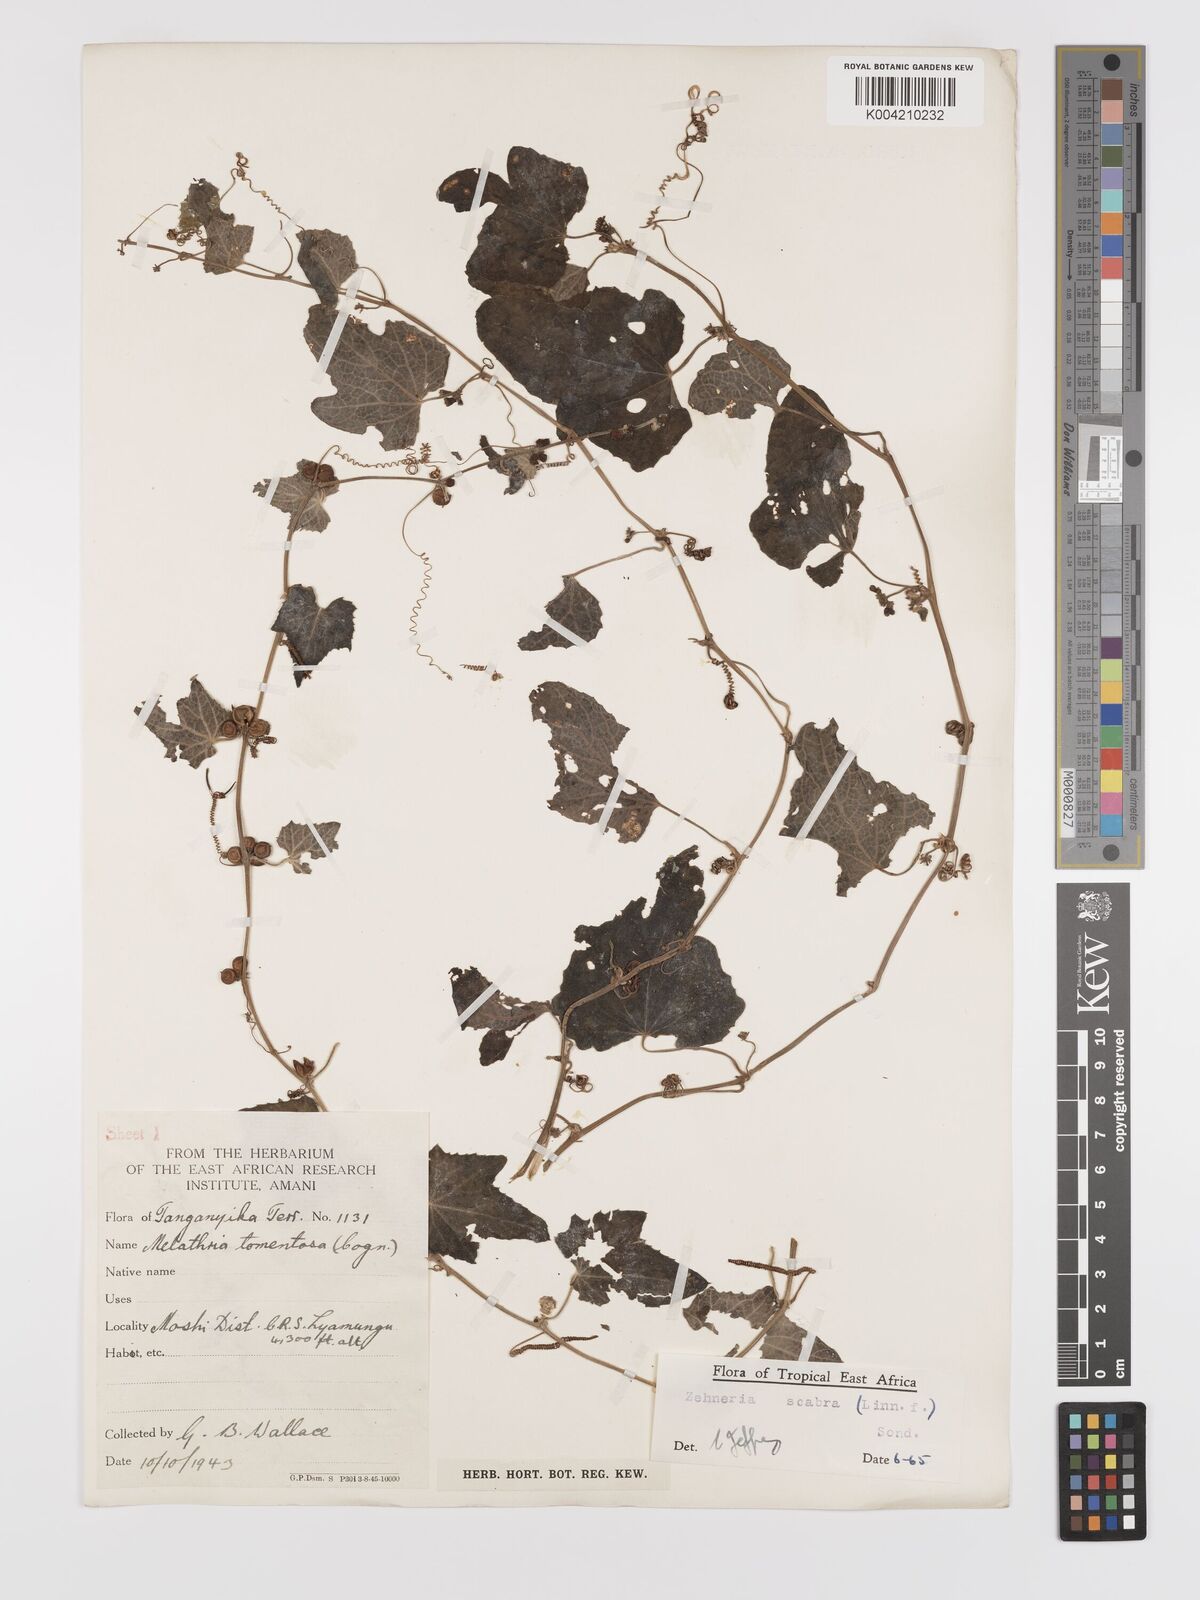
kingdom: Plantae
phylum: Tracheophyta
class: Magnoliopsida
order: Cucurbitales
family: Cucurbitaceae
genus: Zehneria
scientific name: Zehneria scabra
